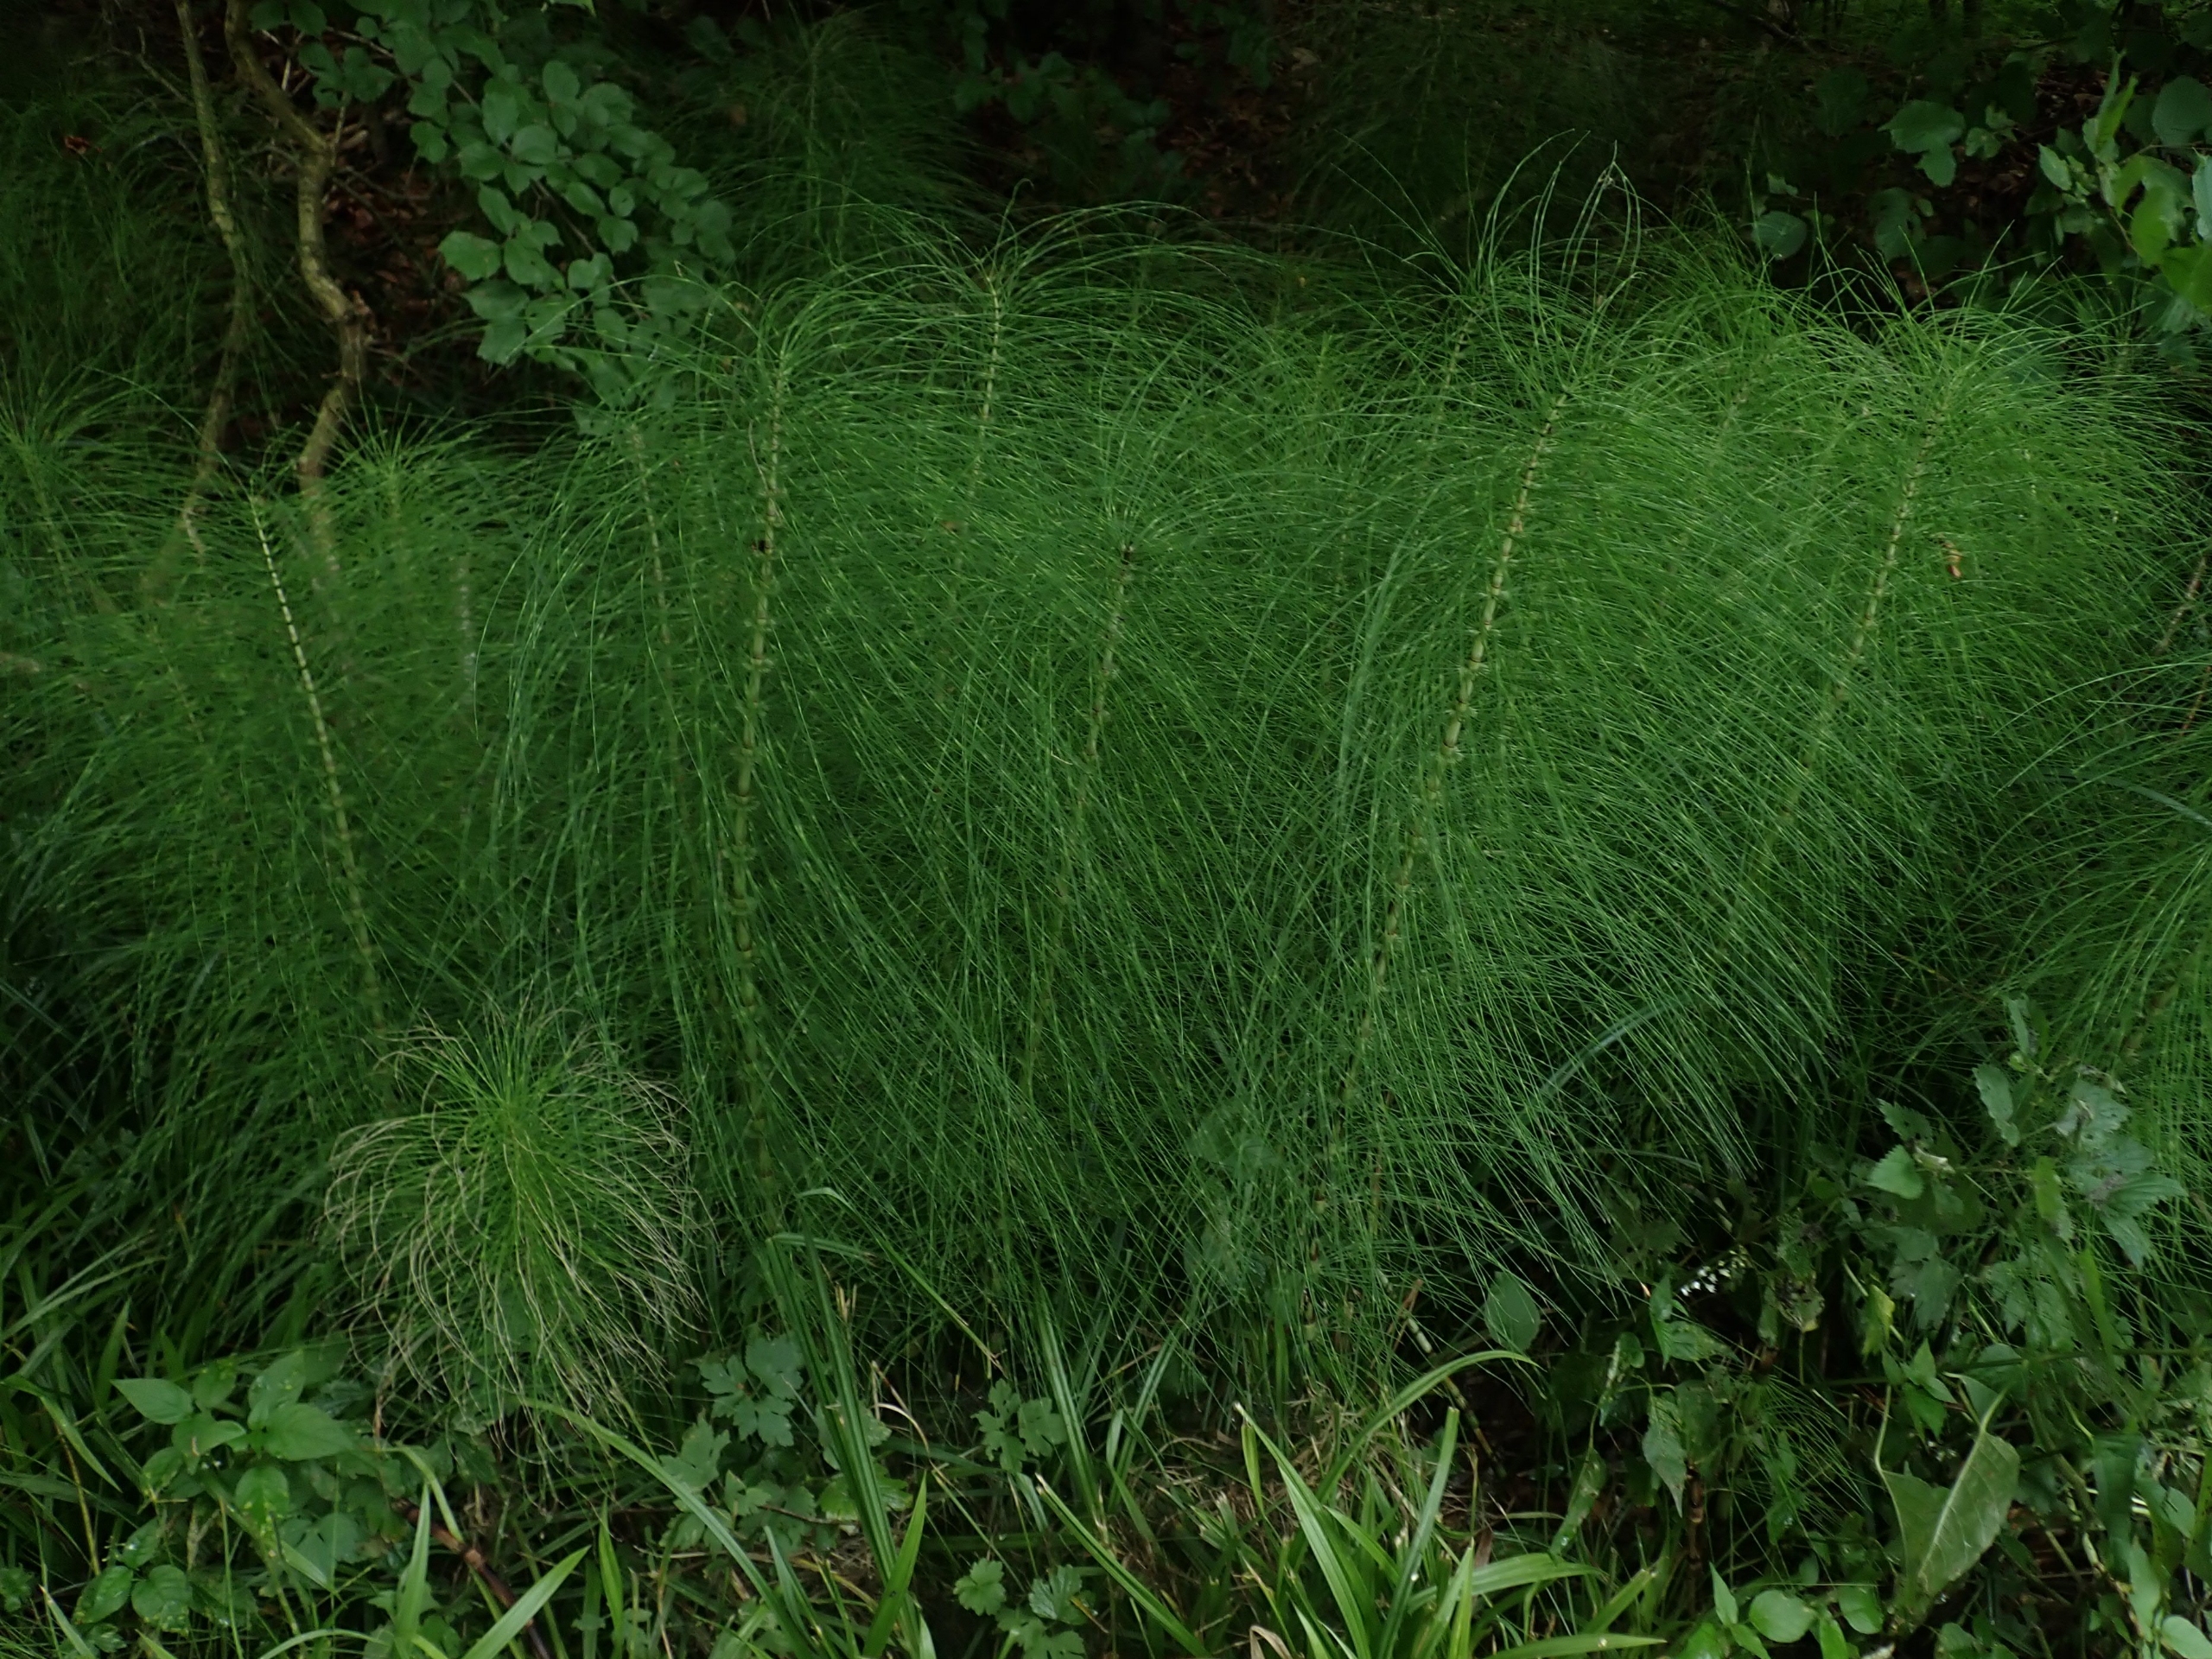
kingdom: Plantae
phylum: Tracheophyta
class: Polypodiopsida
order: Equisetales
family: Equisetaceae
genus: Equisetum
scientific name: Equisetum telmateia
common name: Elfenbens-padderok
